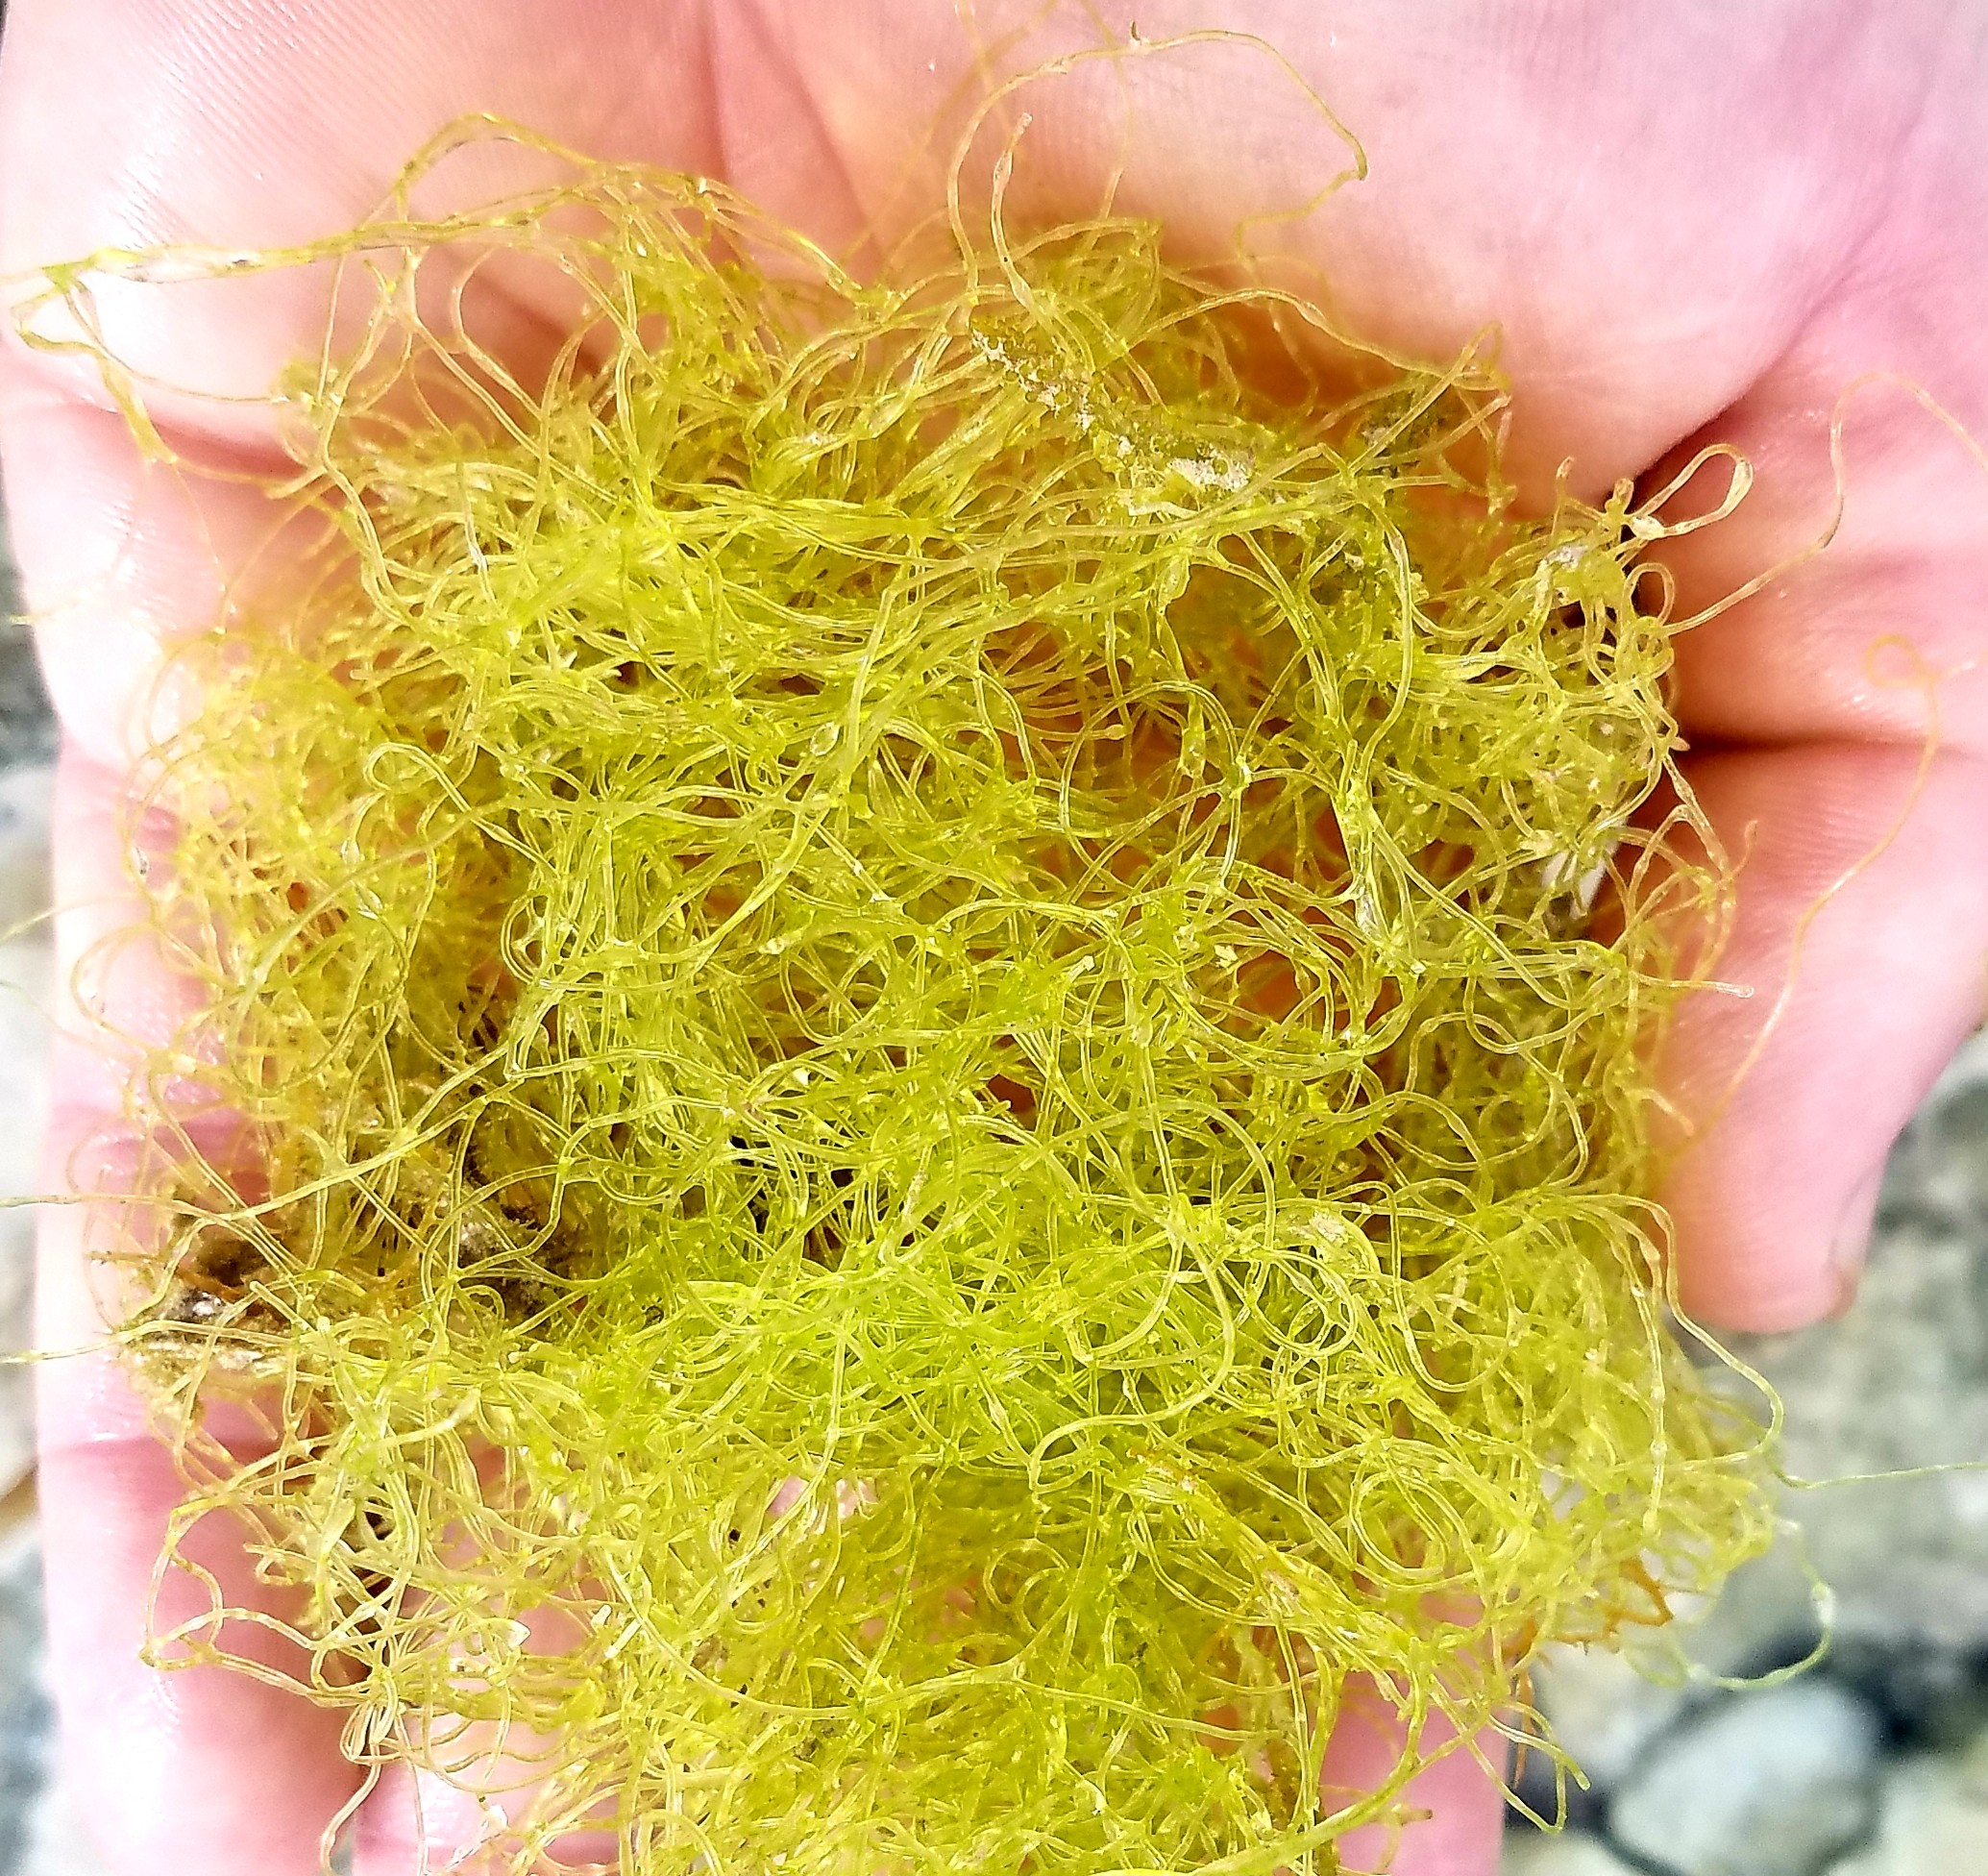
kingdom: Plantae
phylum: Chlorophyta
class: Ulvophyceae
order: Cladophorales
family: Cladophoraceae
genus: Chaetomorpha
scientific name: Chaetomorpha linum
